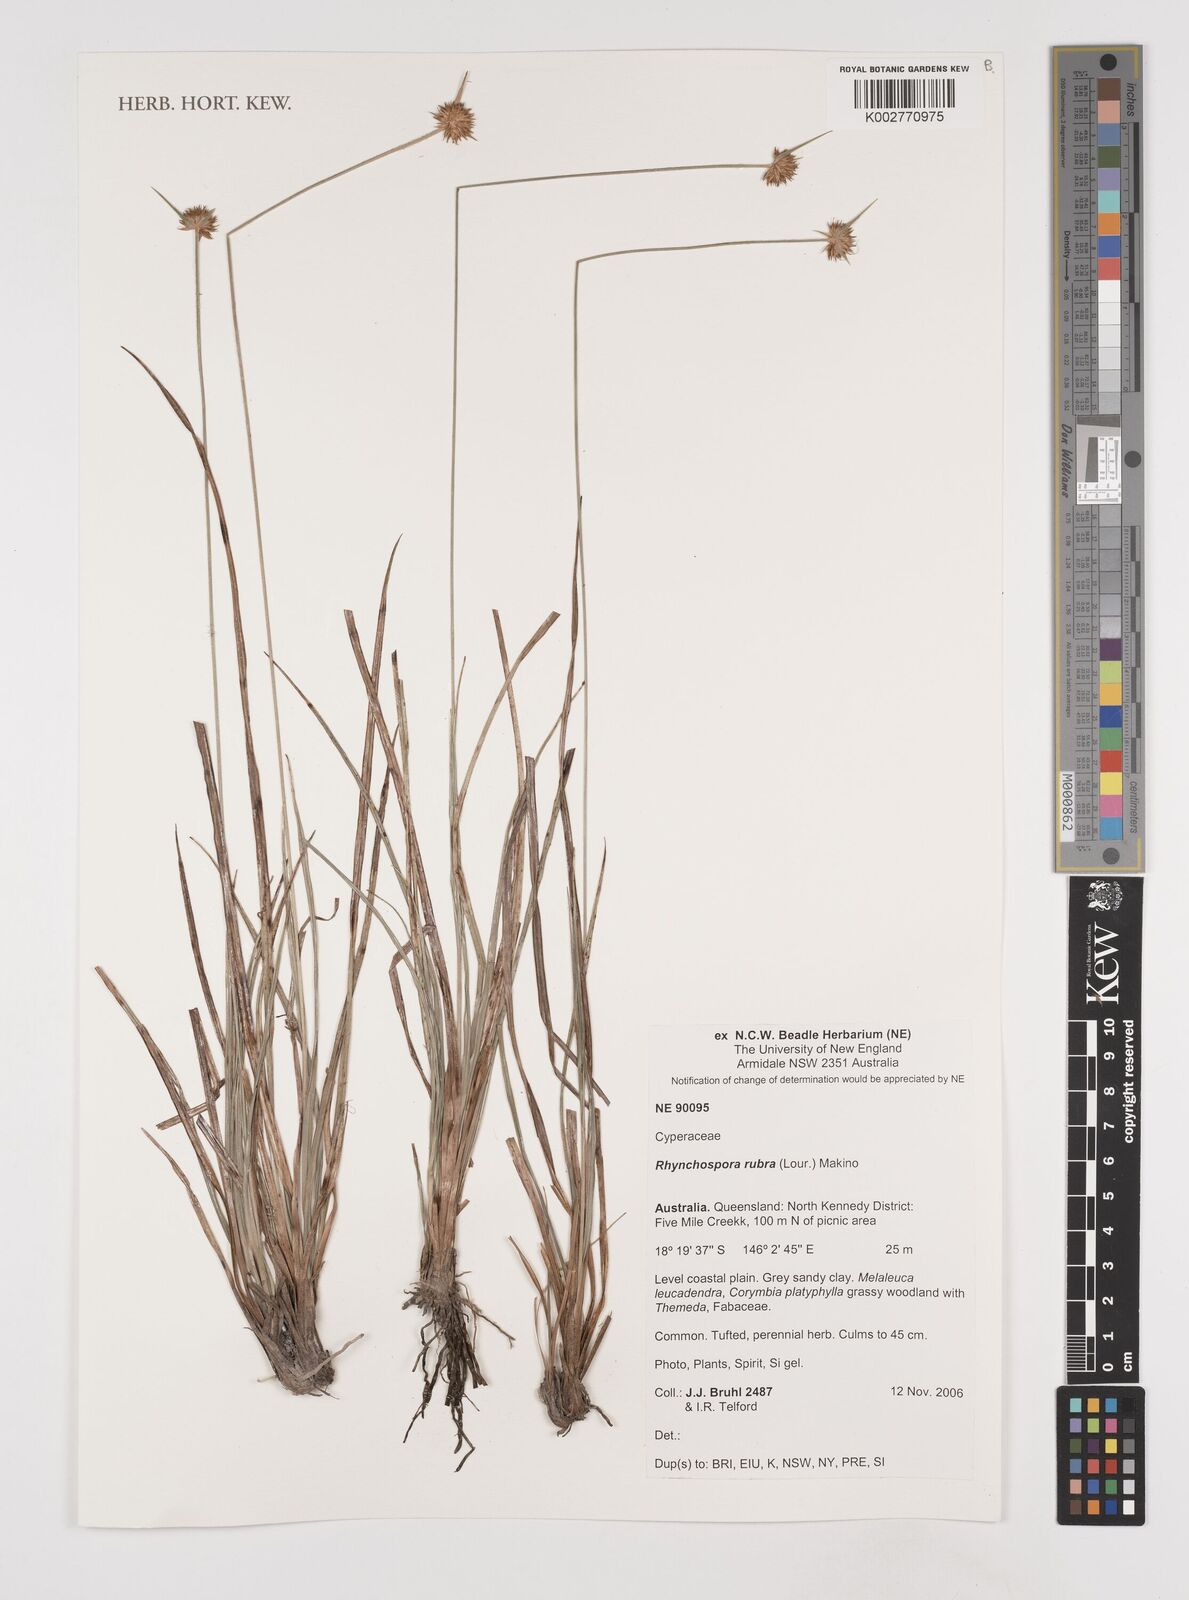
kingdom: Plantae
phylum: Tracheophyta
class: Liliopsida
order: Poales
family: Cyperaceae
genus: Rhynchospora
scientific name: Rhynchospora rubra
